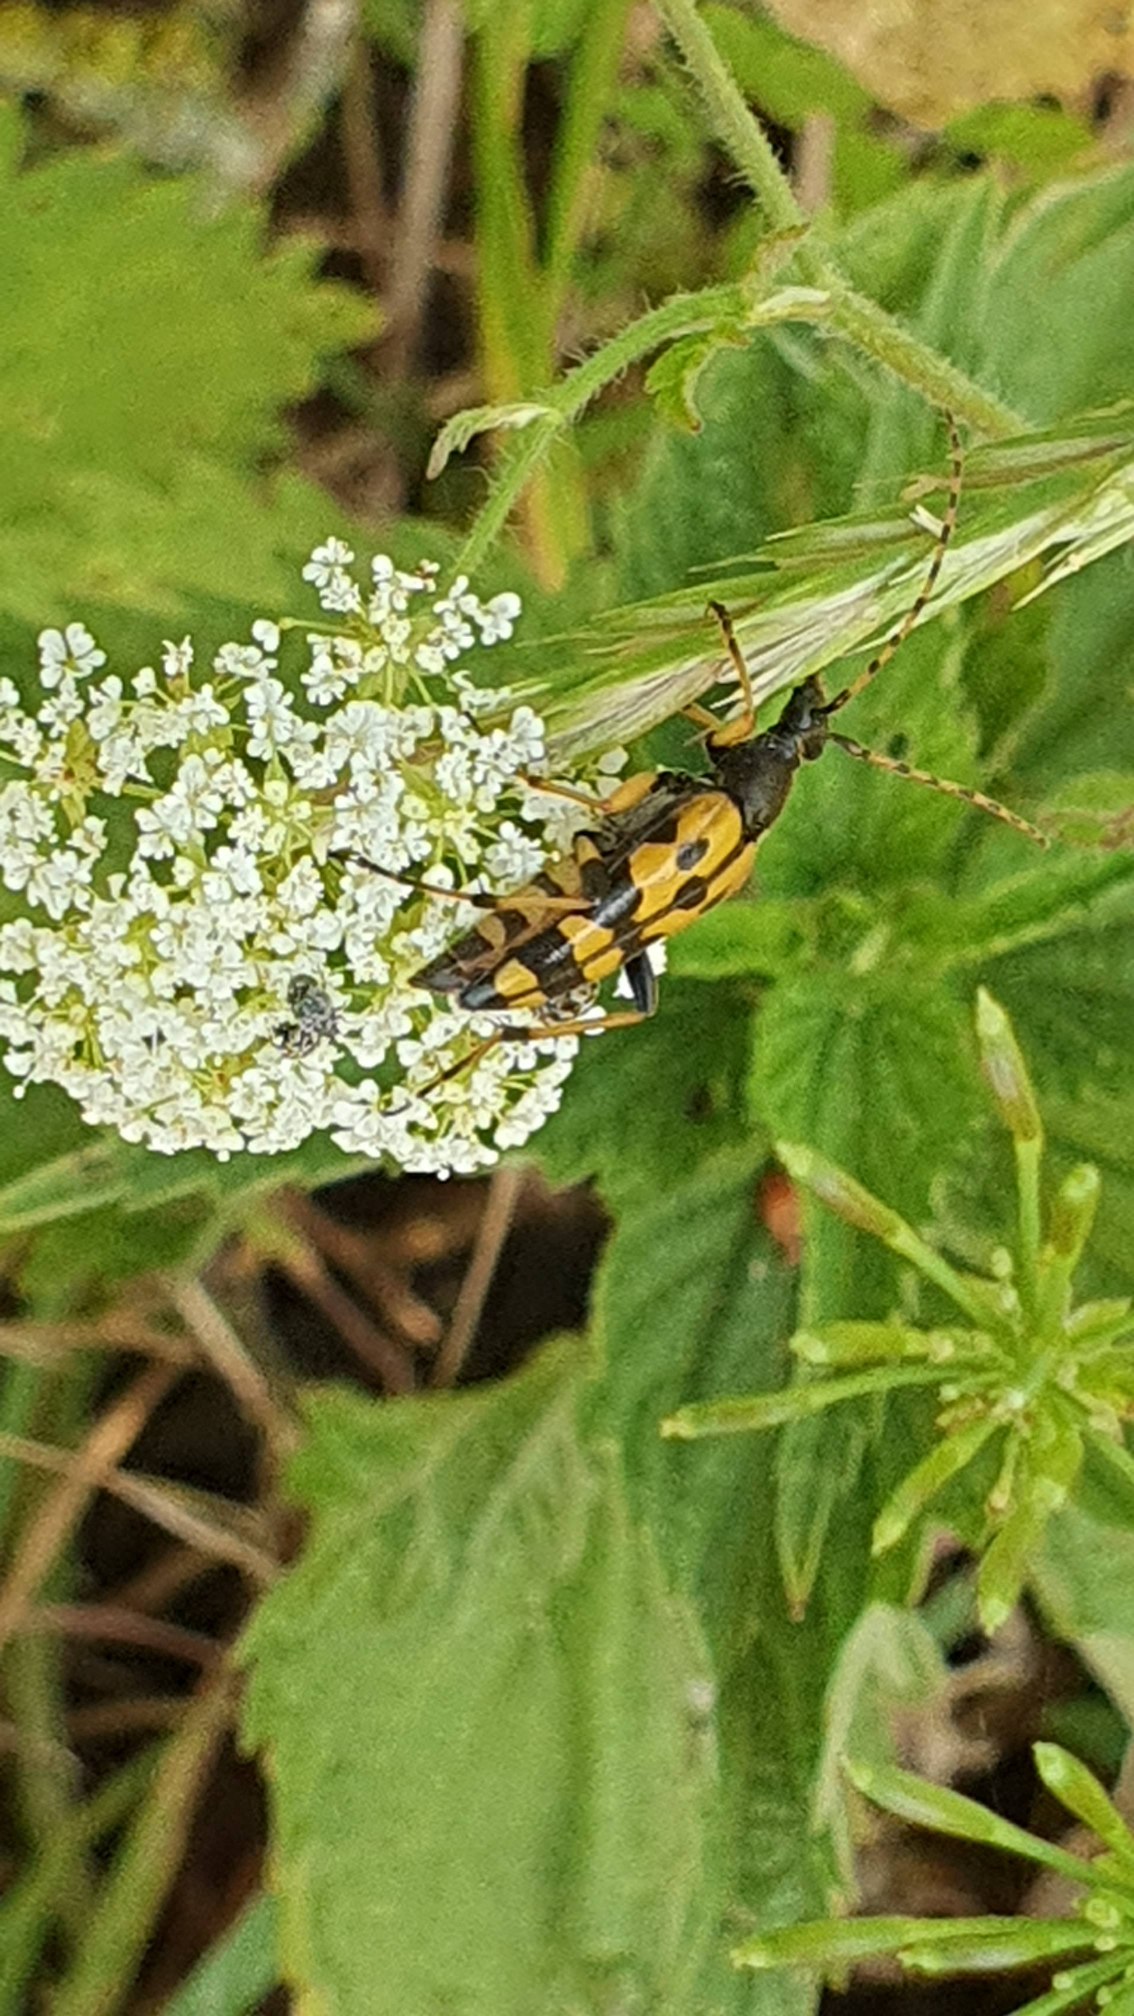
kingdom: Animalia
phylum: Arthropoda
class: Insecta
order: Coleoptera
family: Cerambycidae
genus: Rutpela
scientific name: Rutpela maculata
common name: Sydlig blomsterbuk
